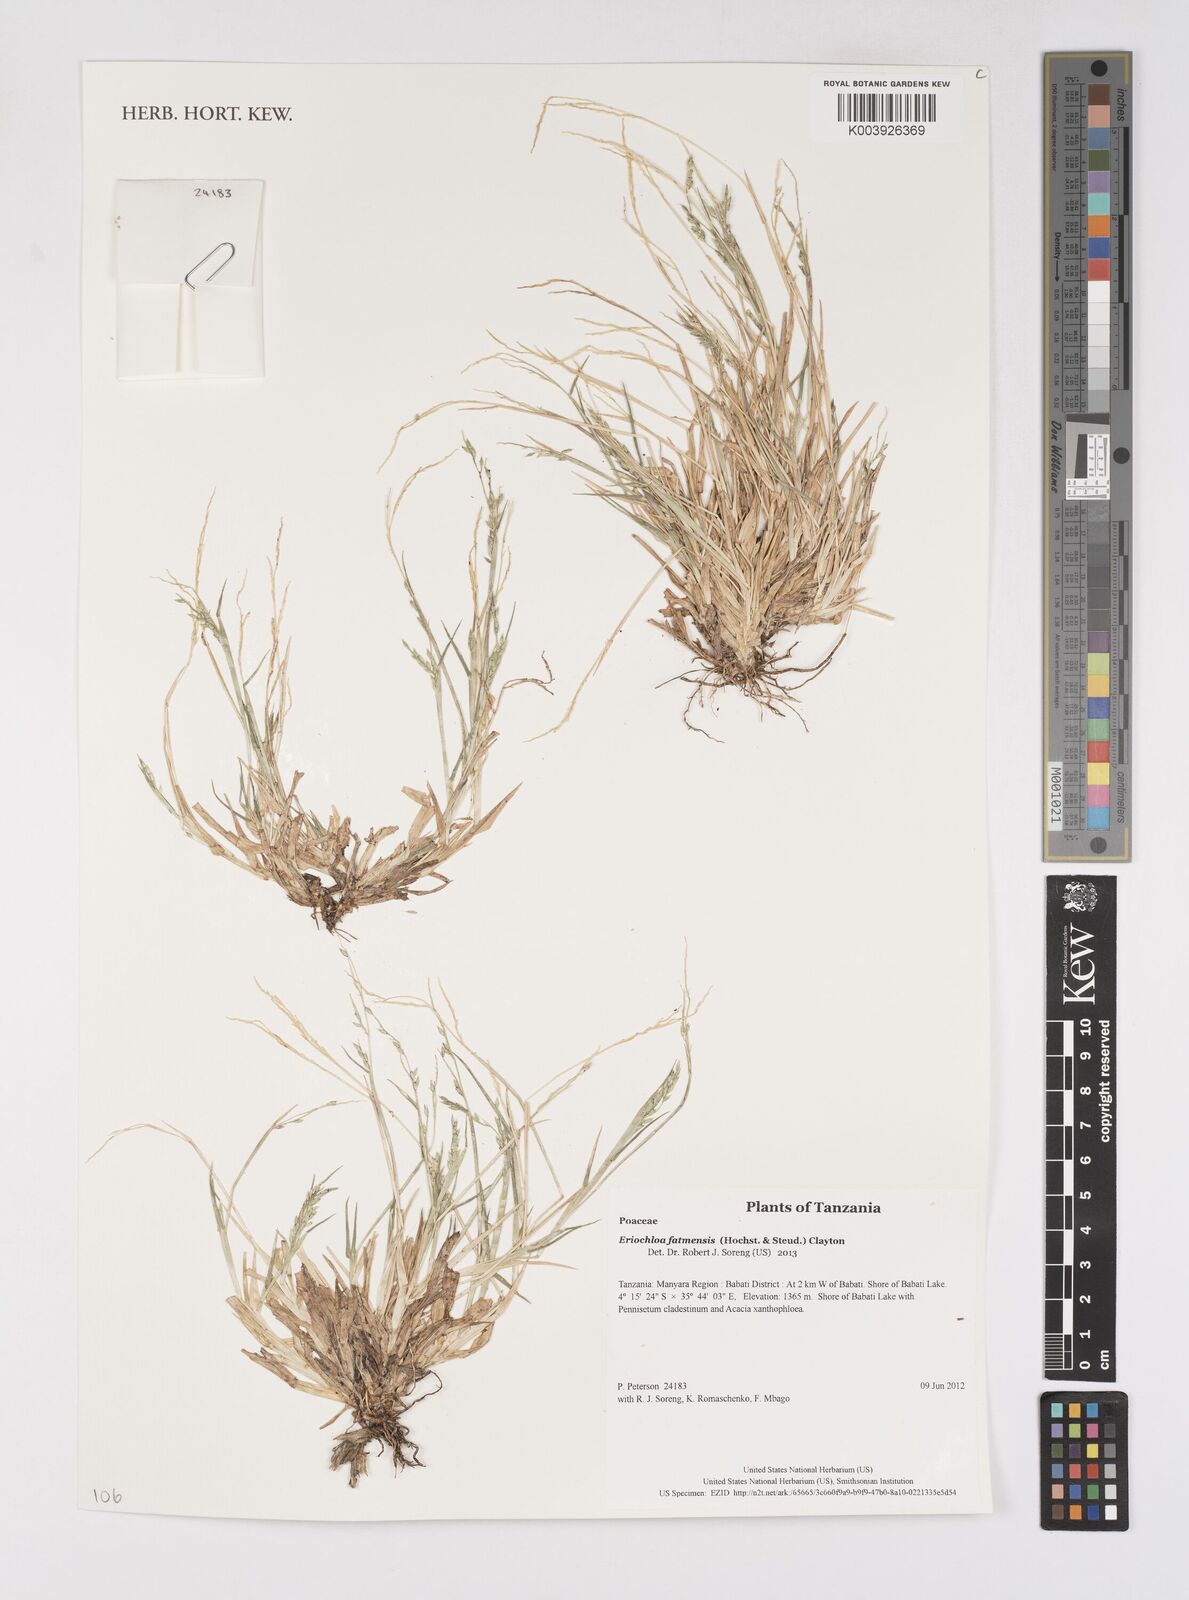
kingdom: Plantae
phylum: Tracheophyta
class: Liliopsida
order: Poales
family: Poaceae
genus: Eriochloa
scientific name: Eriochloa barbatus
